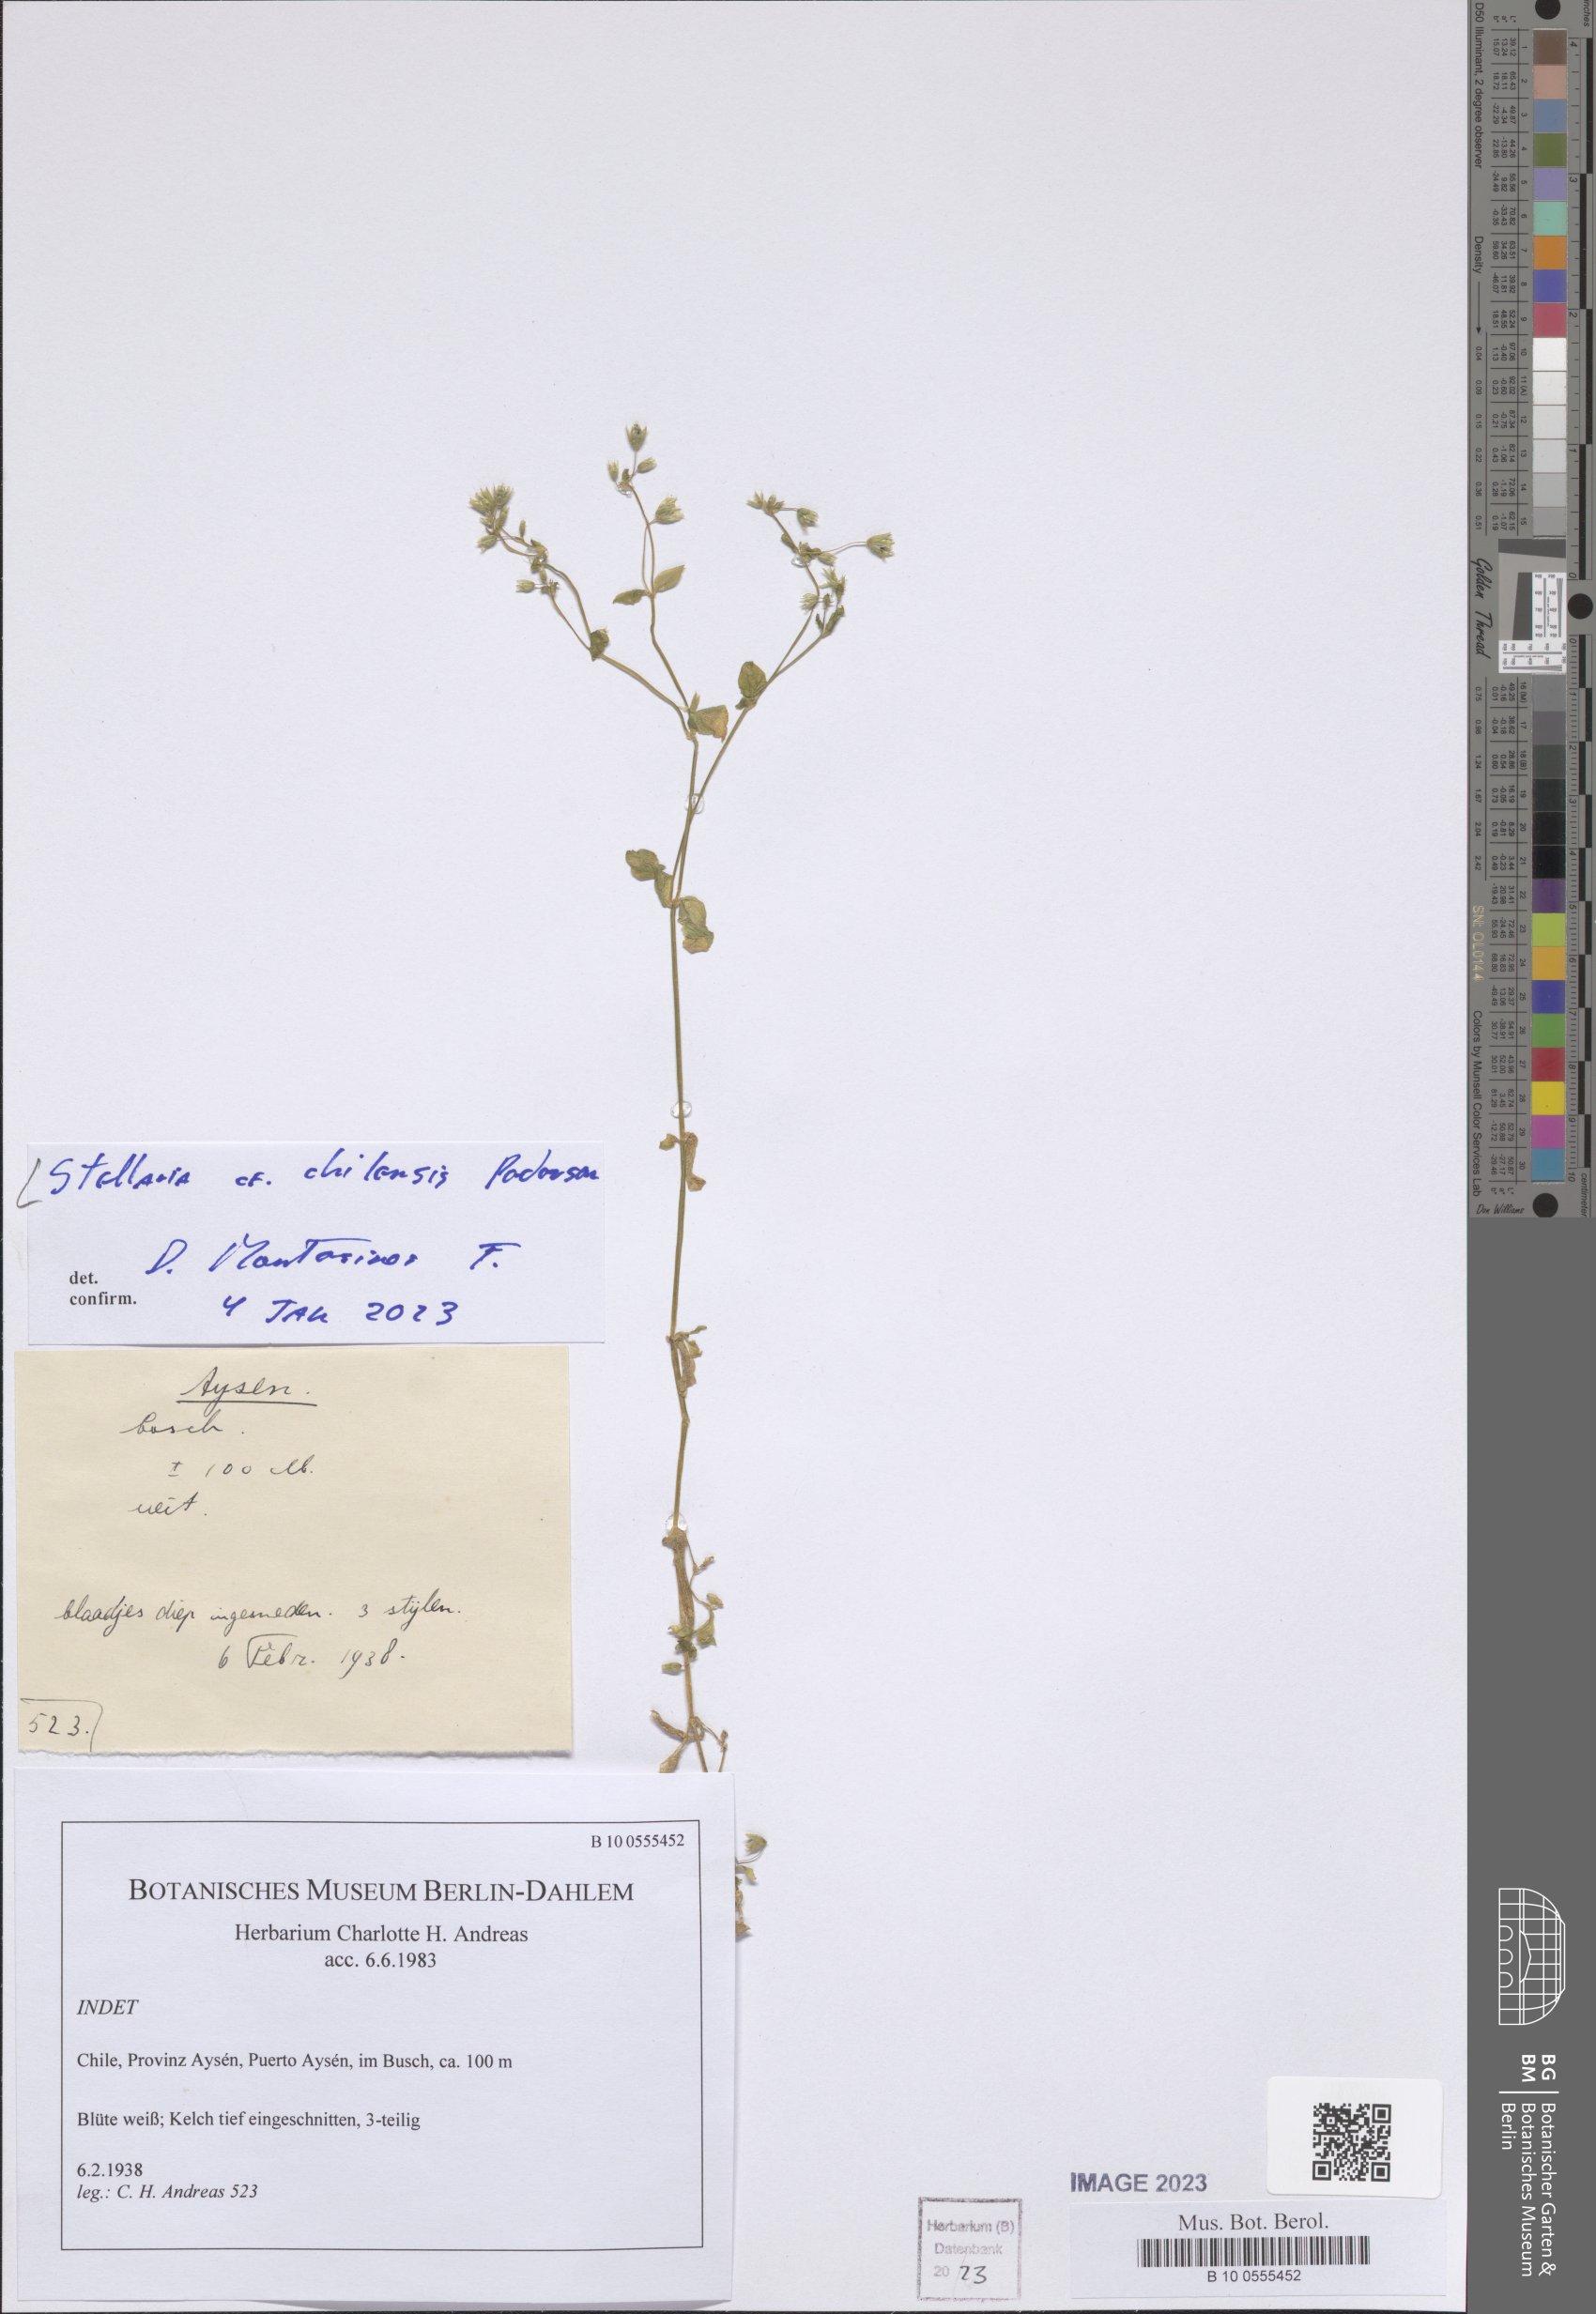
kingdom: Plantae
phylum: Tracheophyta
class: Magnoliopsida
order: Caryophyllales
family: Caryophyllaceae
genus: Stellaria
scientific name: Stellaria chilensis
